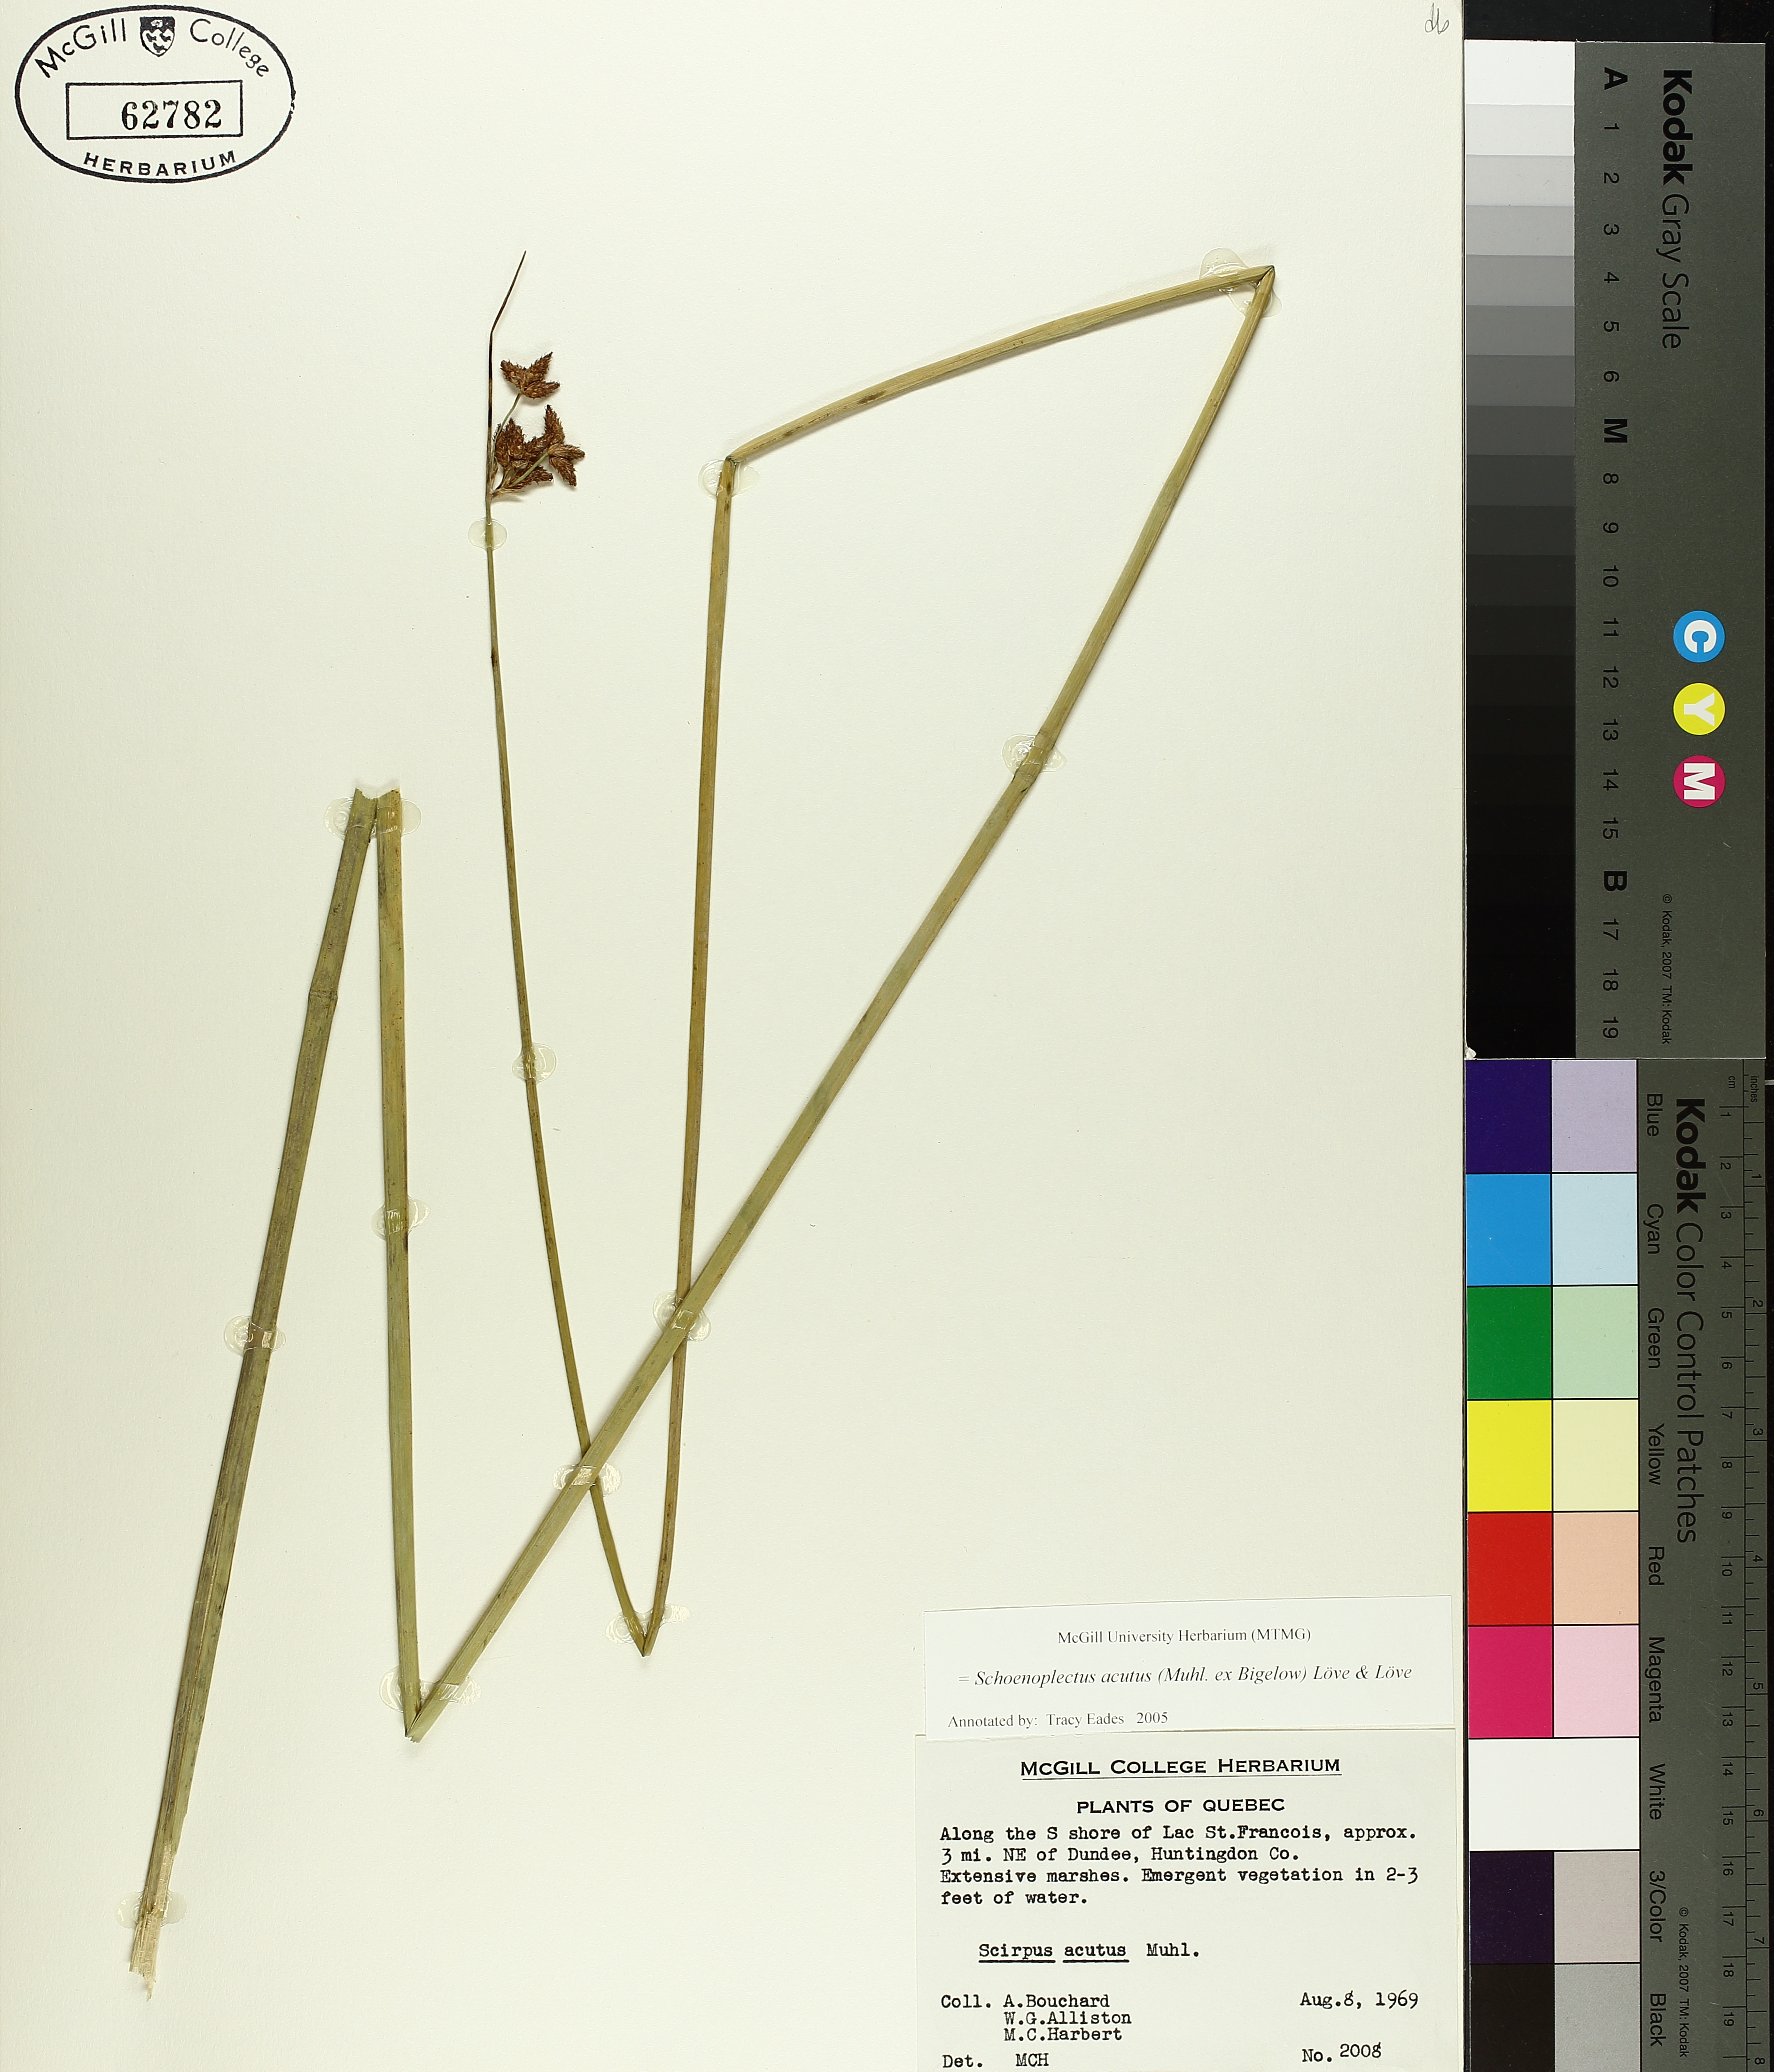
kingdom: Plantae
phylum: Tracheophyta
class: Liliopsida
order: Poales
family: Cyperaceae
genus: Schoenoplectus
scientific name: Schoenoplectus acutus
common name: Hardstem bulrush
